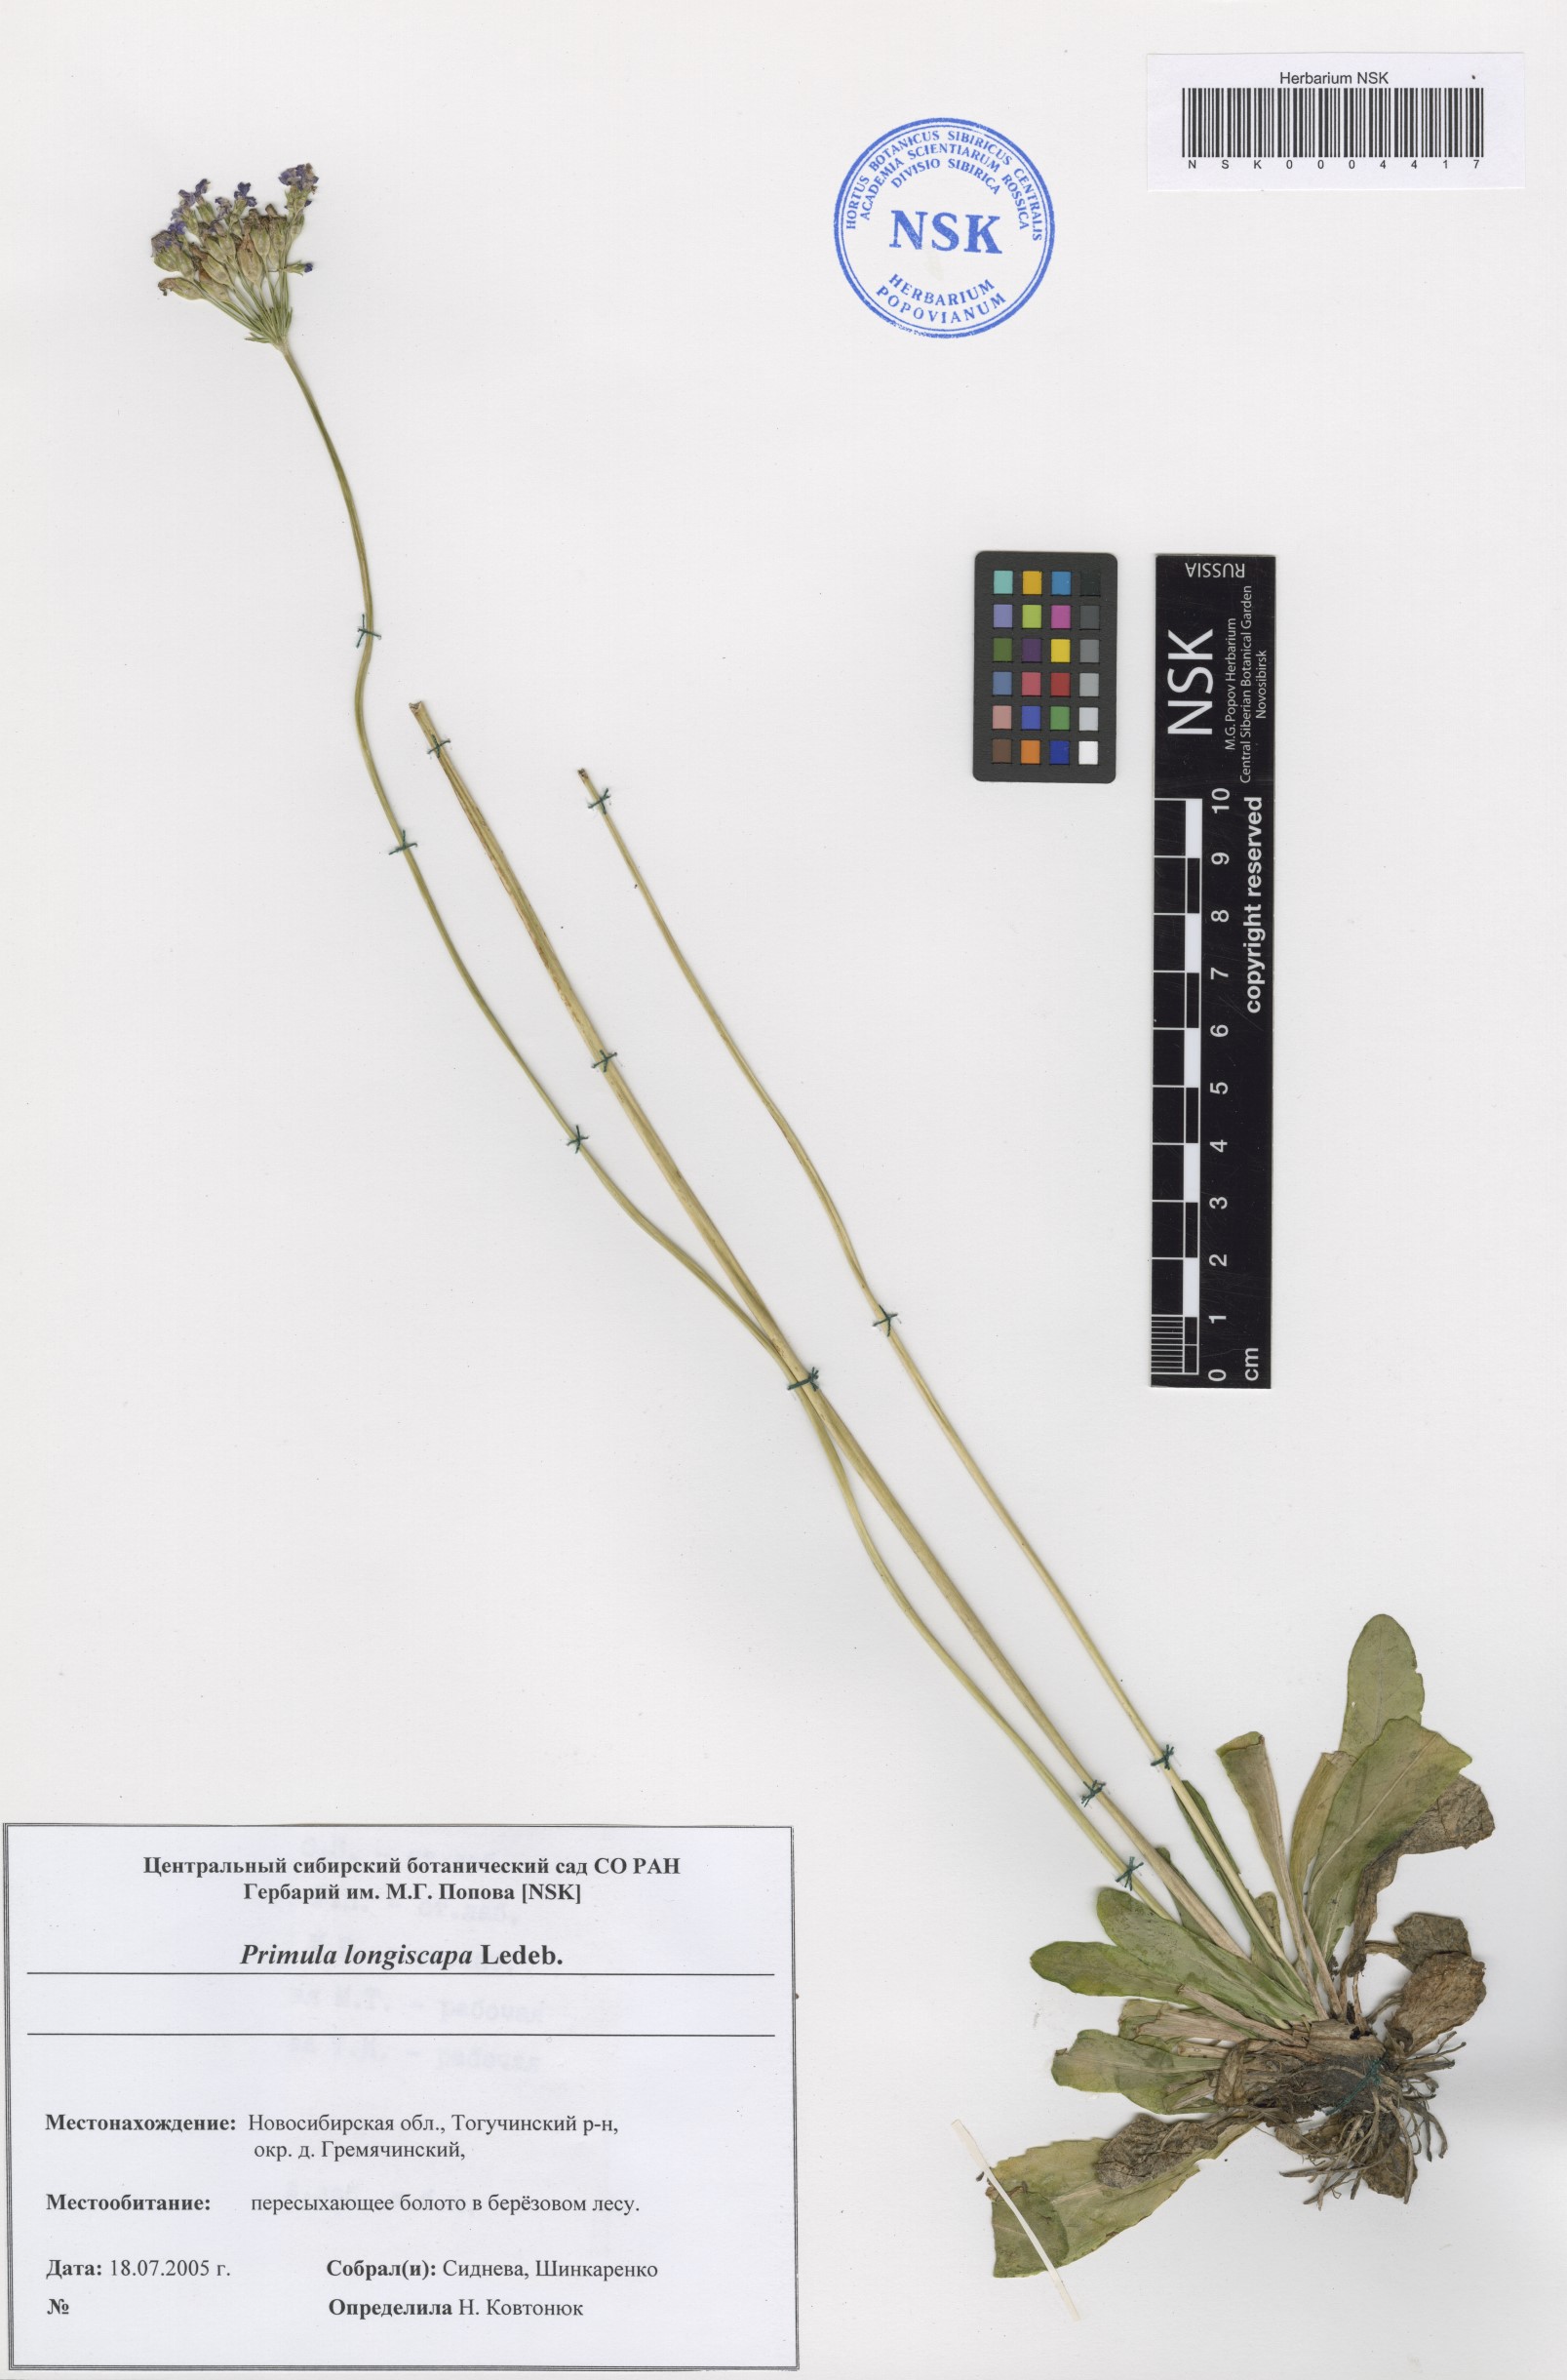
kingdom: Plantae
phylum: Tracheophyta
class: Magnoliopsida
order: Ericales
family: Primulaceae
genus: Primula
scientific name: Primula longiscapa
